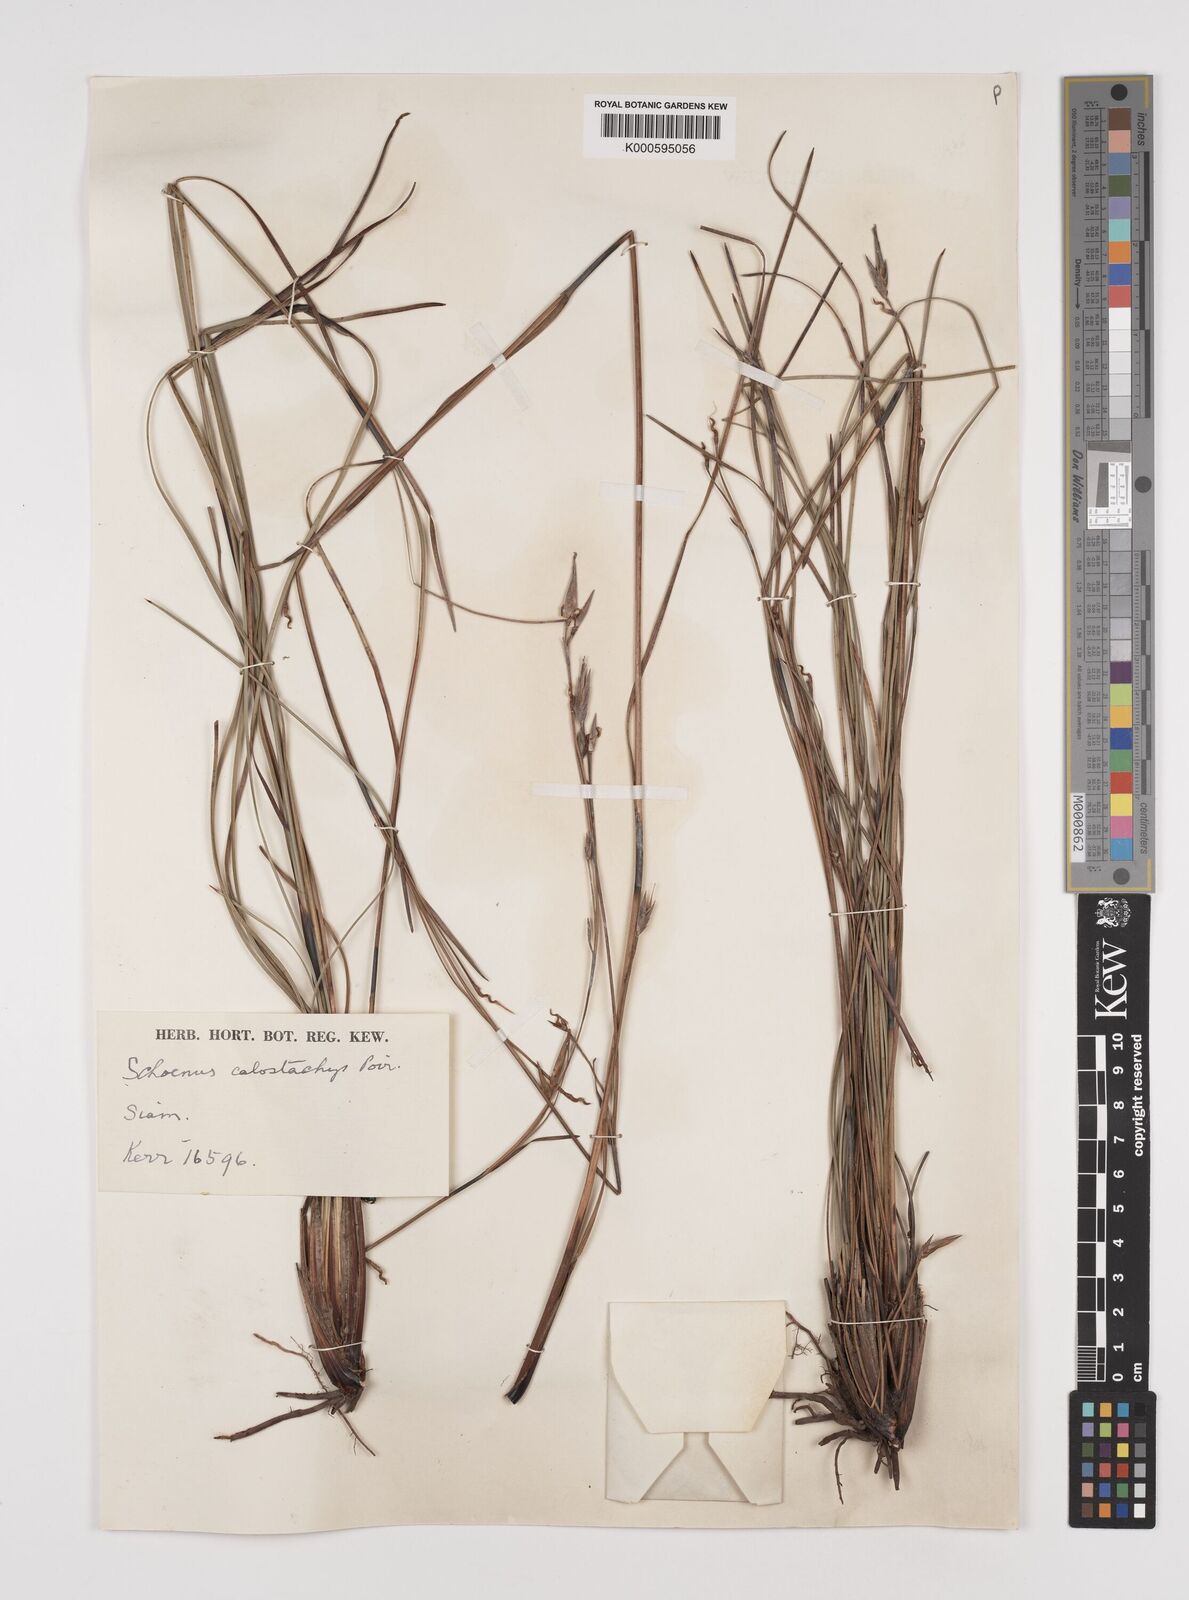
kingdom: Plantae
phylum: Tracheophyta
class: Liliopsida
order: Poales
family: Cyperaceae
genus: Schoenus
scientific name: Schoenus
